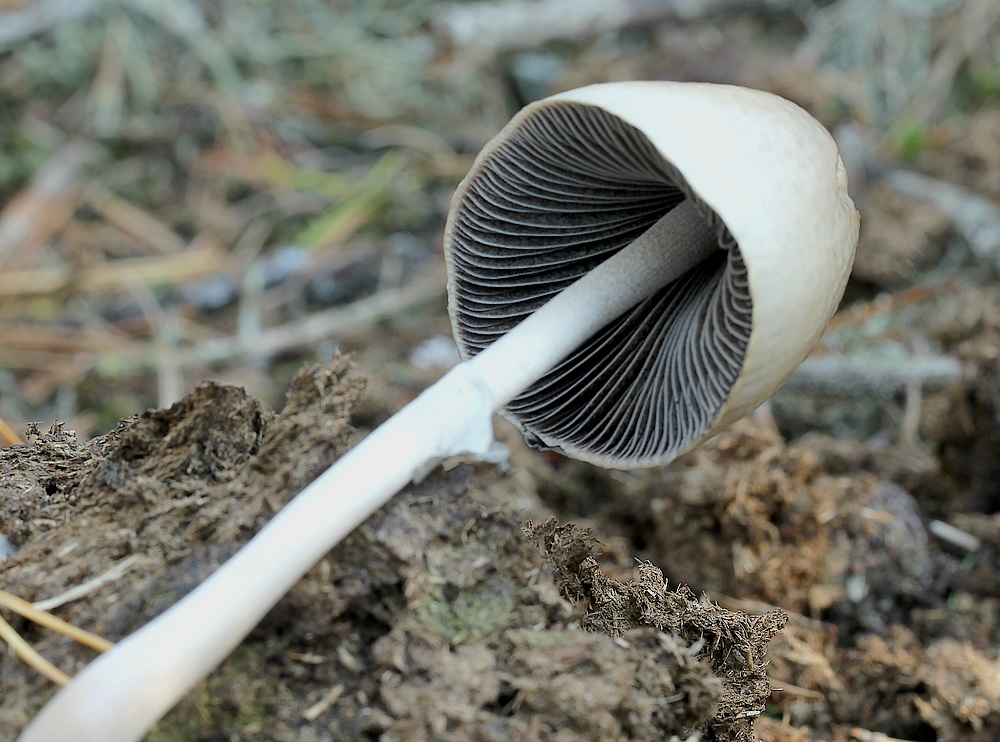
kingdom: Fungi
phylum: Basidiomycota
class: Agaricomycetes
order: Agaricales
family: Bolbitiaceae
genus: Panaeolus
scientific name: Panaeolus semiovatus
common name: ring-glanshat
